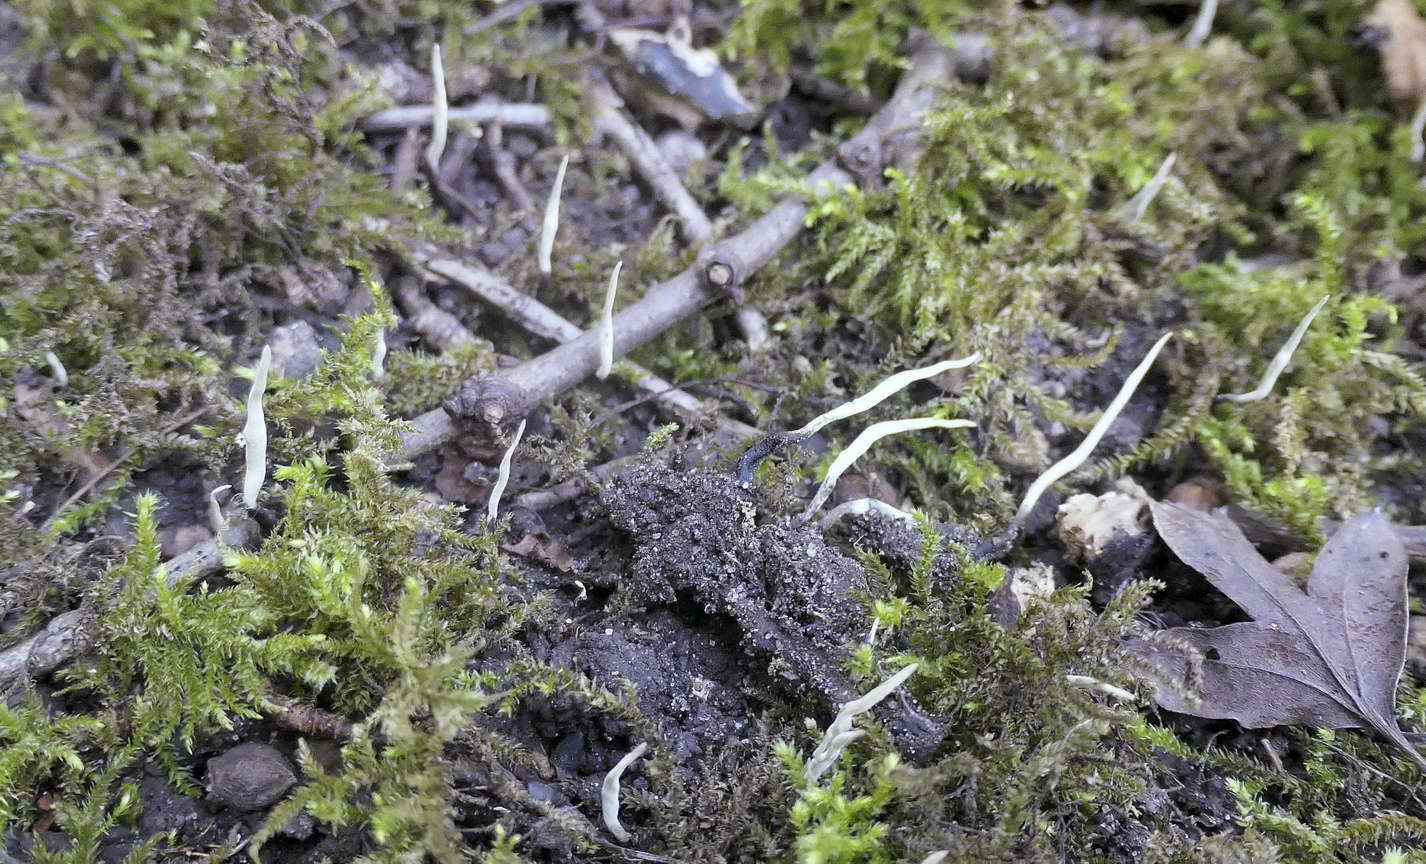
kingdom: Fungi
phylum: Ascomycota
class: Sordariomycetes
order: Xylariales
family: Xylariaceae
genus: Xylaria
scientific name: Xylaria oxyacanthae
